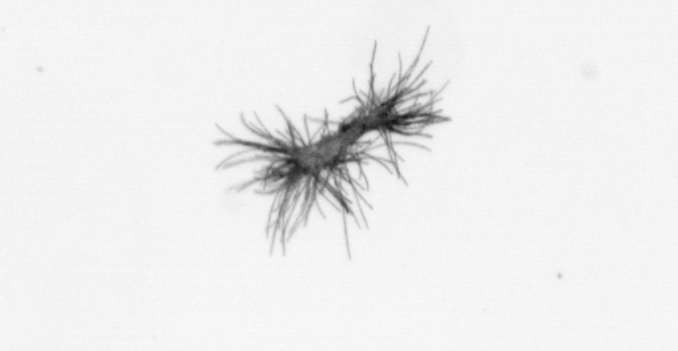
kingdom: Bacteria
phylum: Cyanobacteria
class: Cyanobacteriia
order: Cyanobacteriales
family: Microcoleaceae
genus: Trichodesmium
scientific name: Trichodesmium
